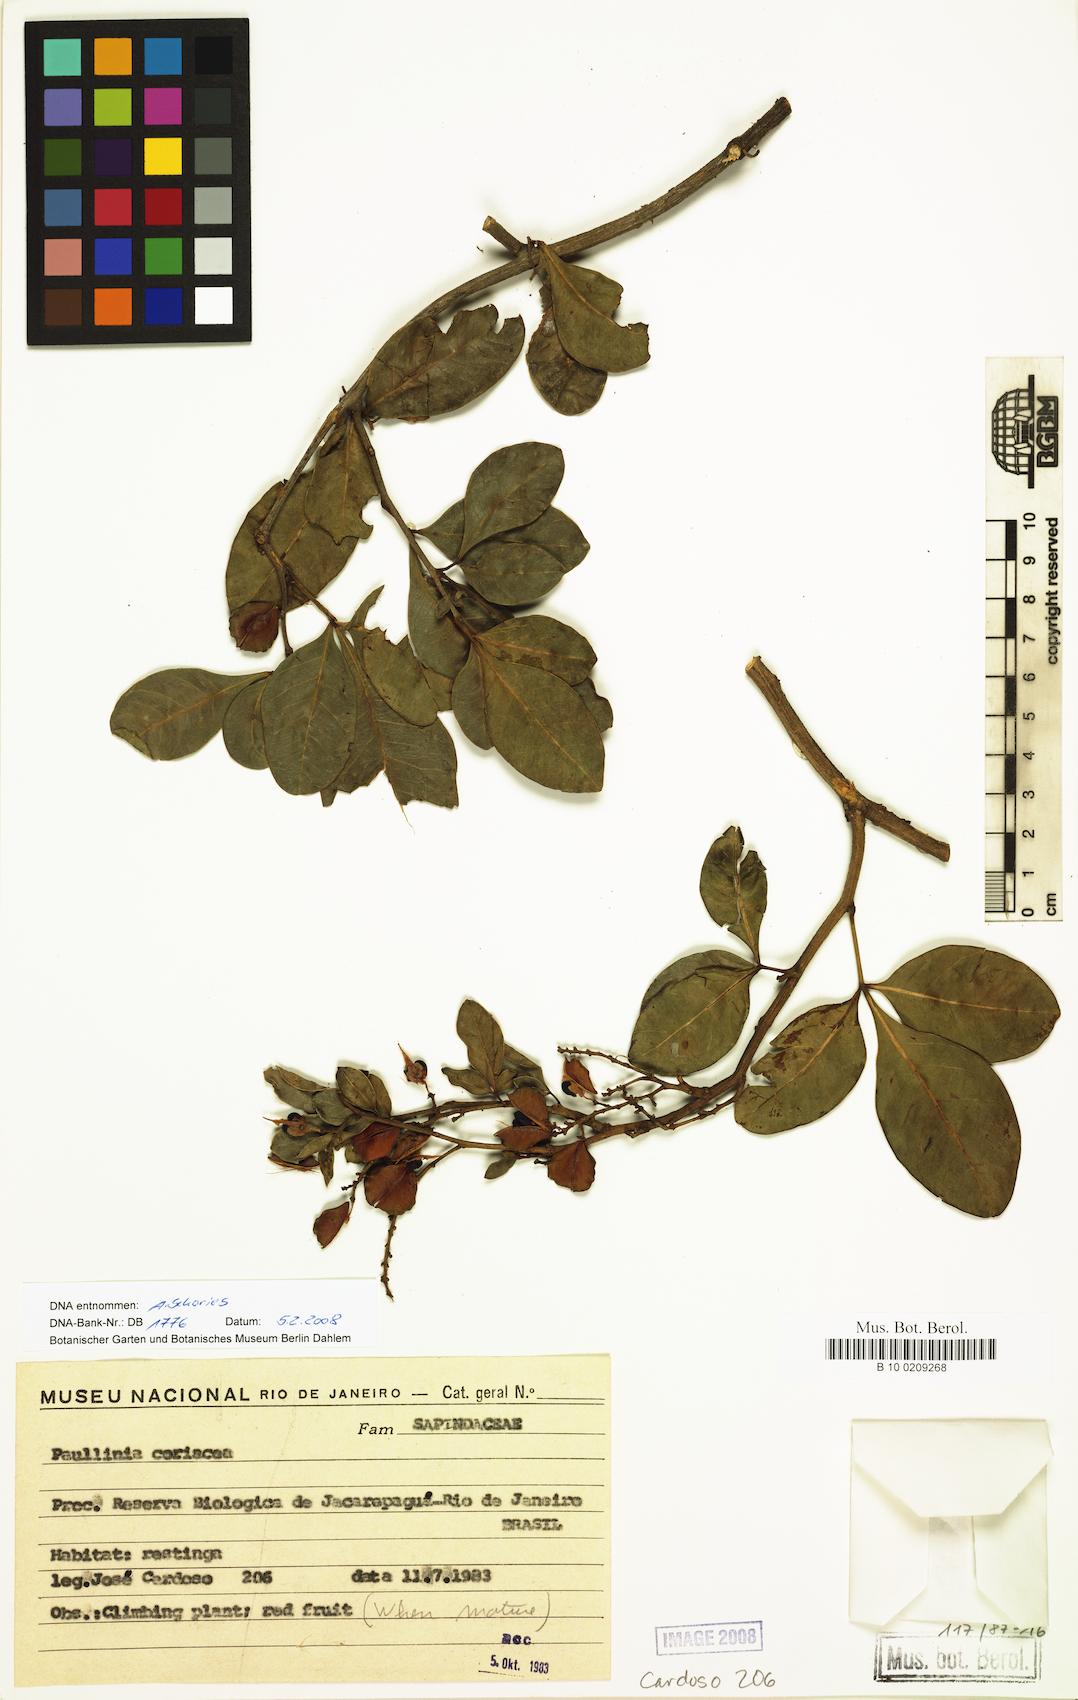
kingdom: Plantae
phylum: Tracheophyta
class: Magnoliopsida
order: Sapindales
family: Sapindaceae
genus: Paullinia
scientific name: Paullinia coriacea
